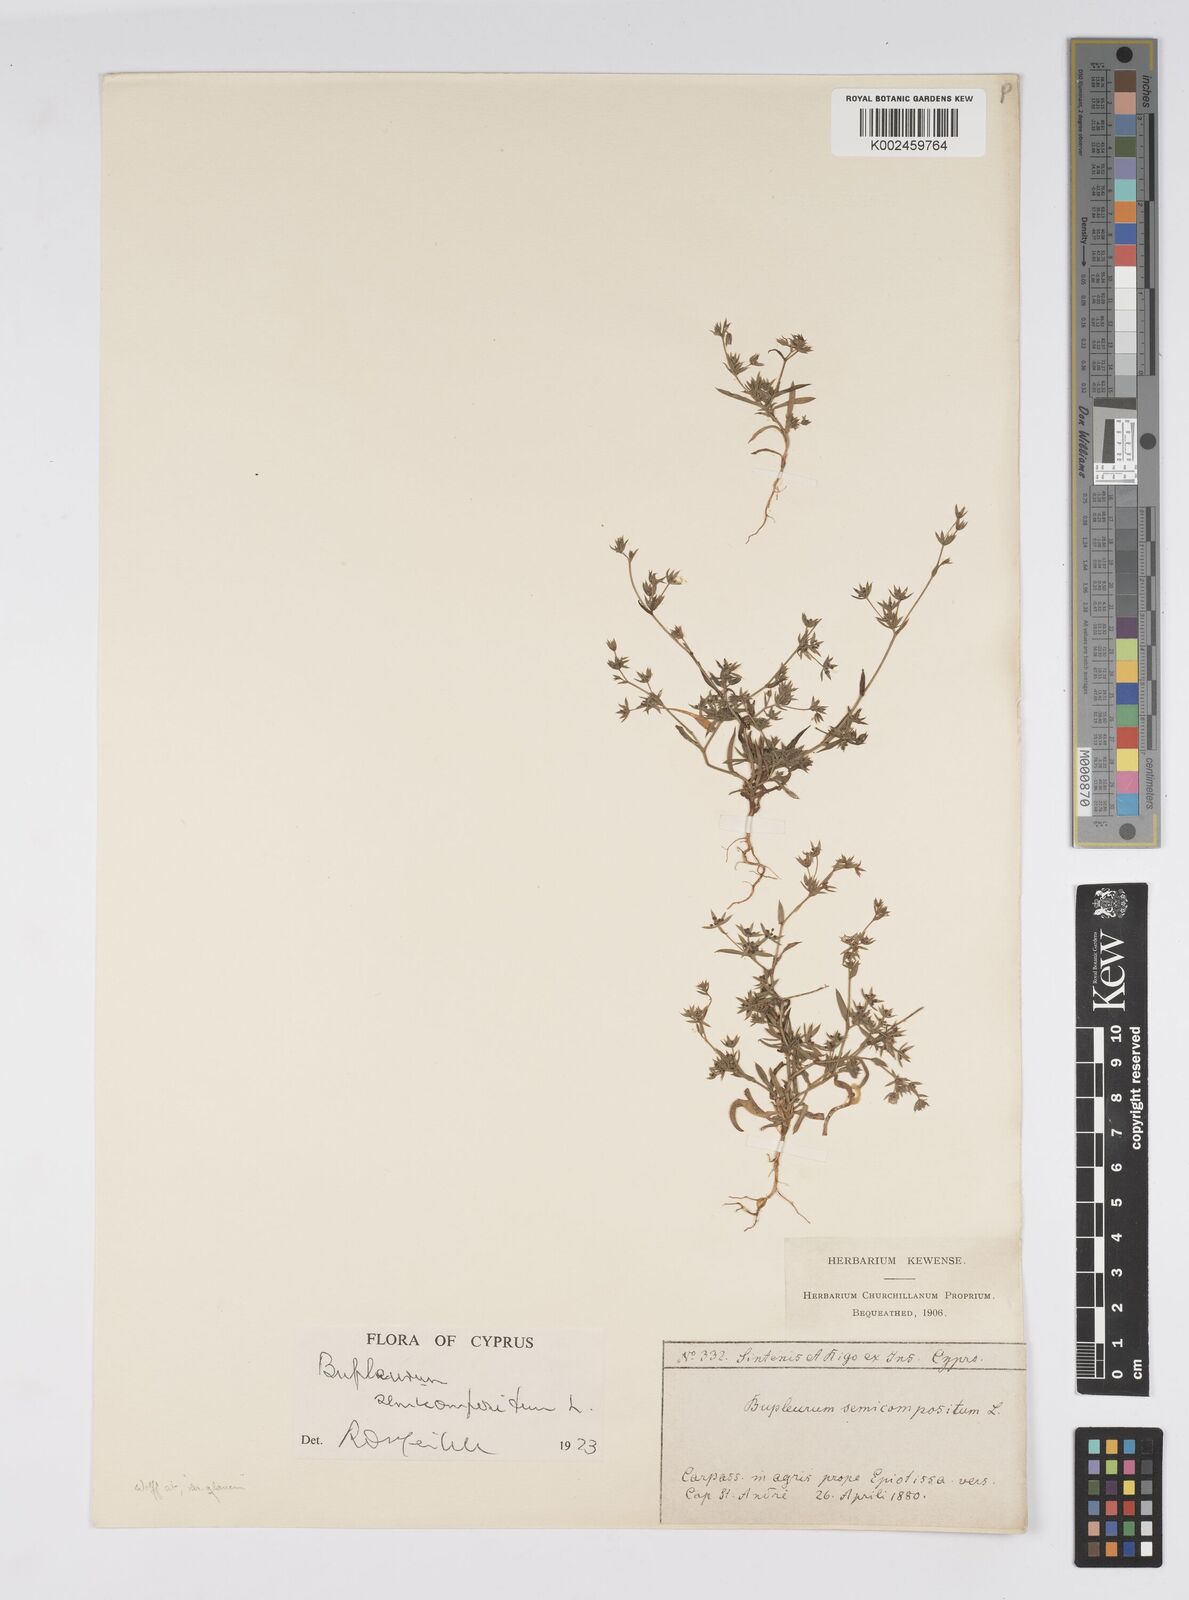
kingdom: Plantae
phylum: Tracheophyta
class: Magnoliopsida
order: Apiales
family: Apiaceae
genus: Bupleurum
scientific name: Bupleurum semicompositum
